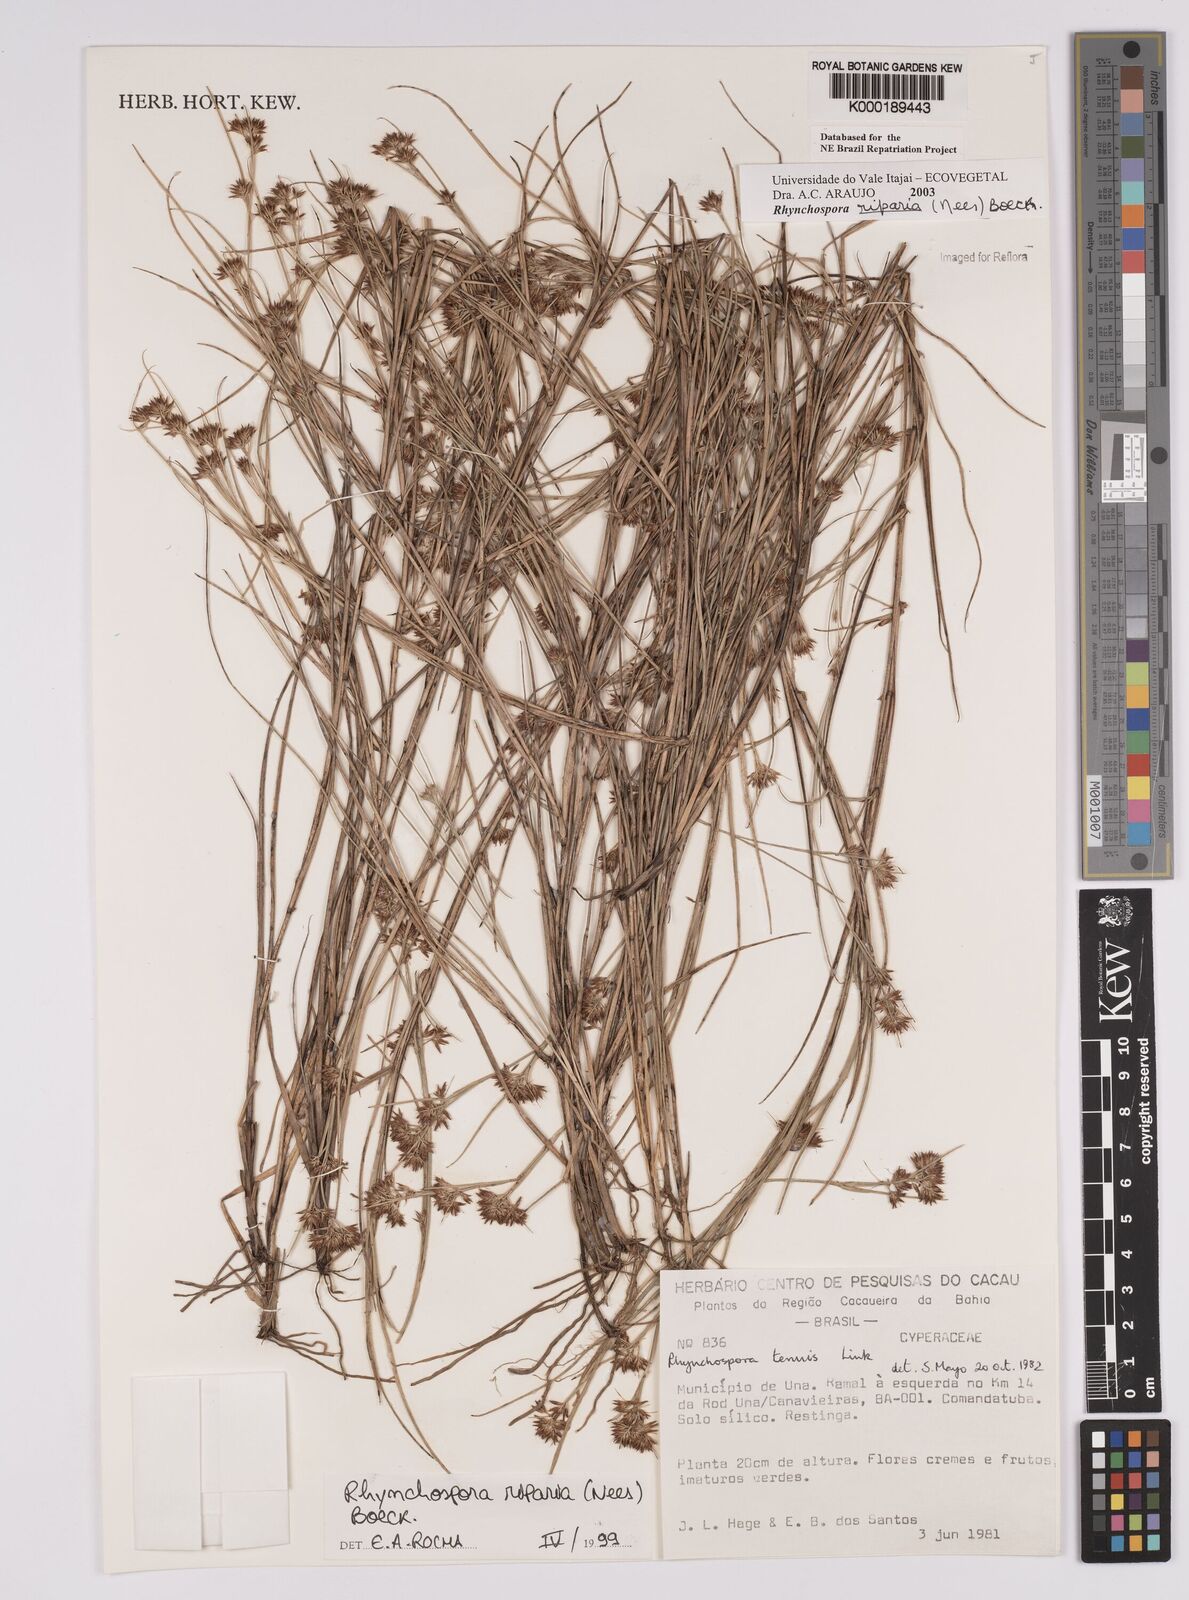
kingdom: Plantae
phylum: Tracheophyta
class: Liliopsida
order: Poales
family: Cyperaceae
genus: Rhynchospora
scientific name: Rhynchospora riparia
